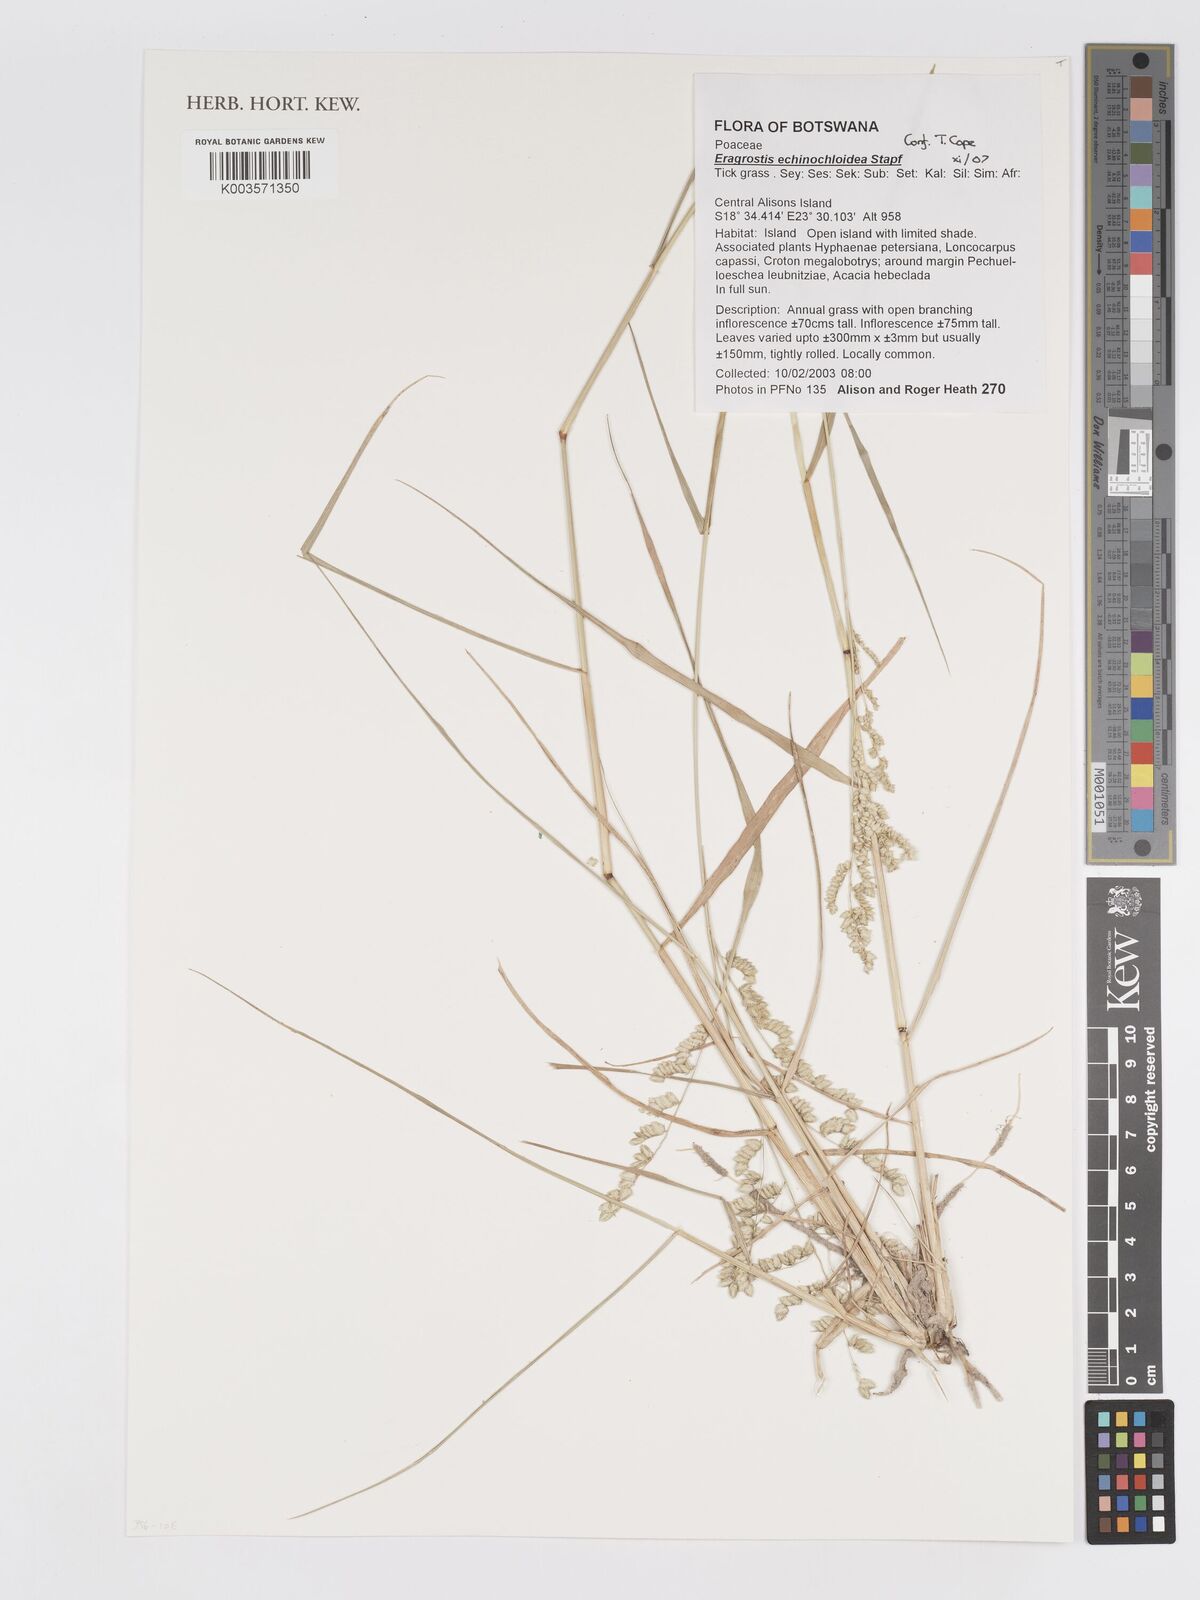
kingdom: Plantae
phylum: Tracheophyta
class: Liliopsida
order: Poales
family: Poaceae
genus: Eragrostis
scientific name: Eragrostis echinochloidea
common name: African lovegrass
